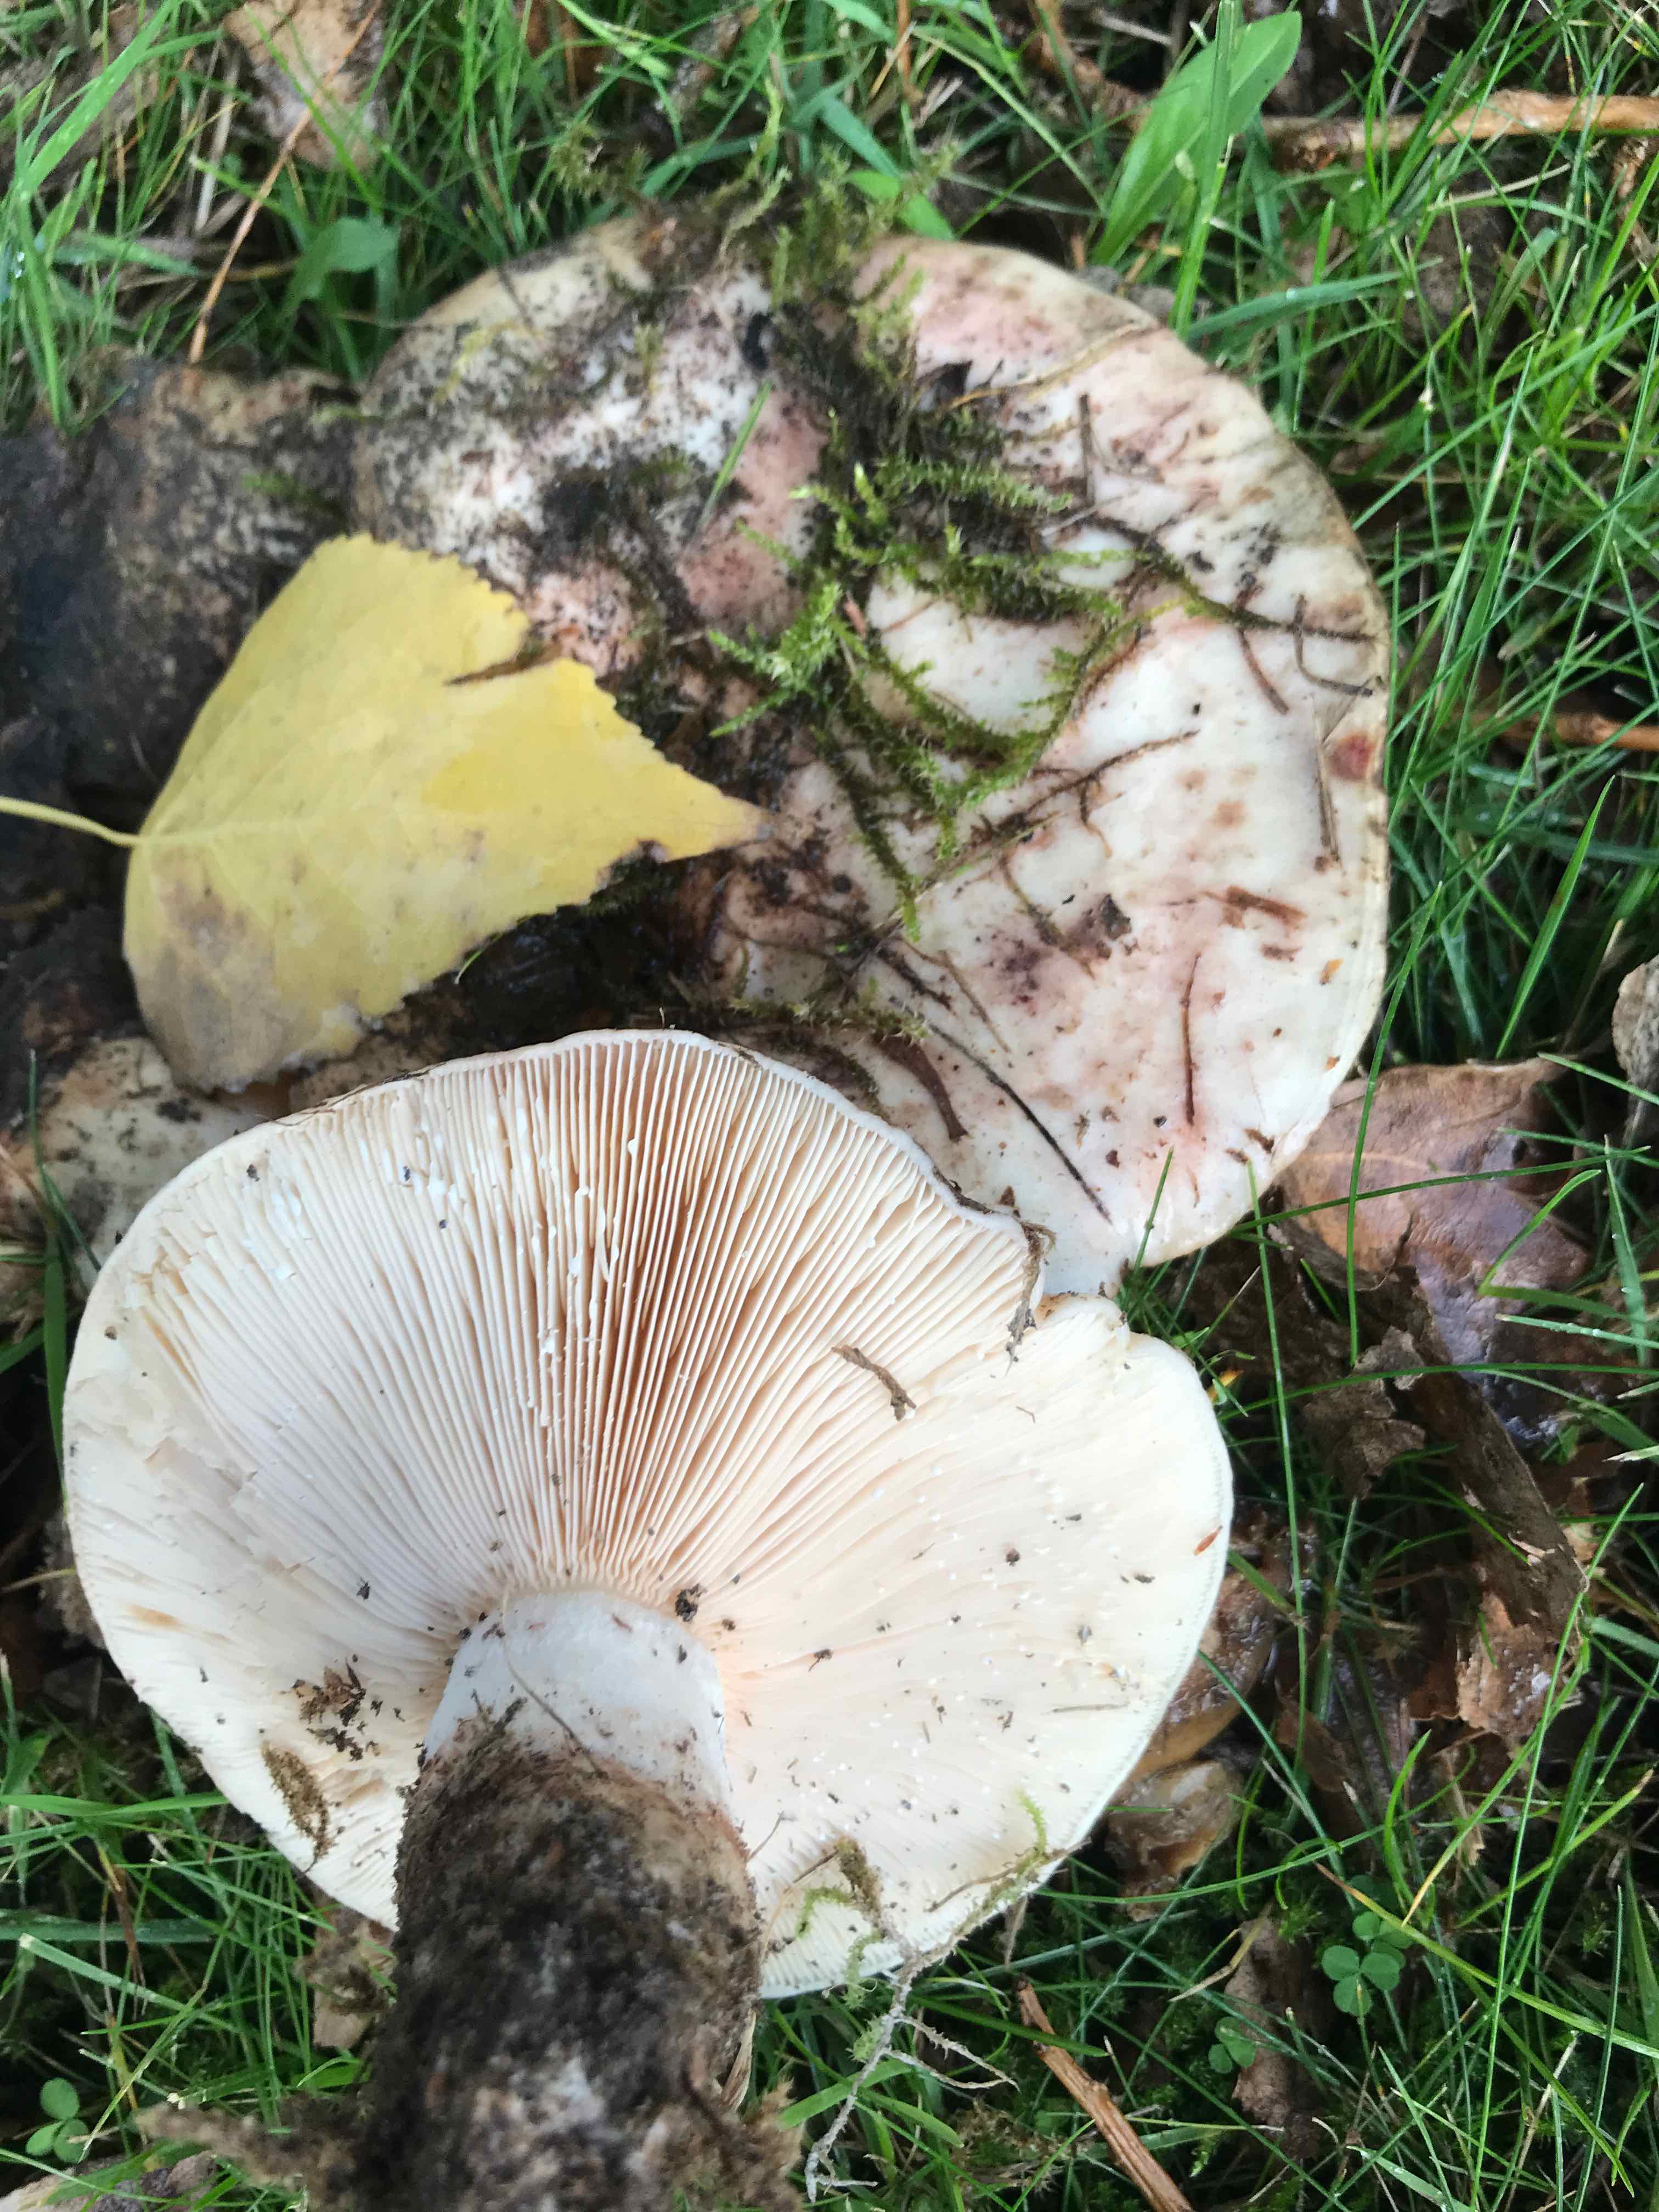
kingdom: Fungi
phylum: Basidiomycota
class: Agaricomycetes
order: Russulales
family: Russulaceae
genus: Lactarius
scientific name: Lactarius controversus
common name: rosabladet mælkehat
